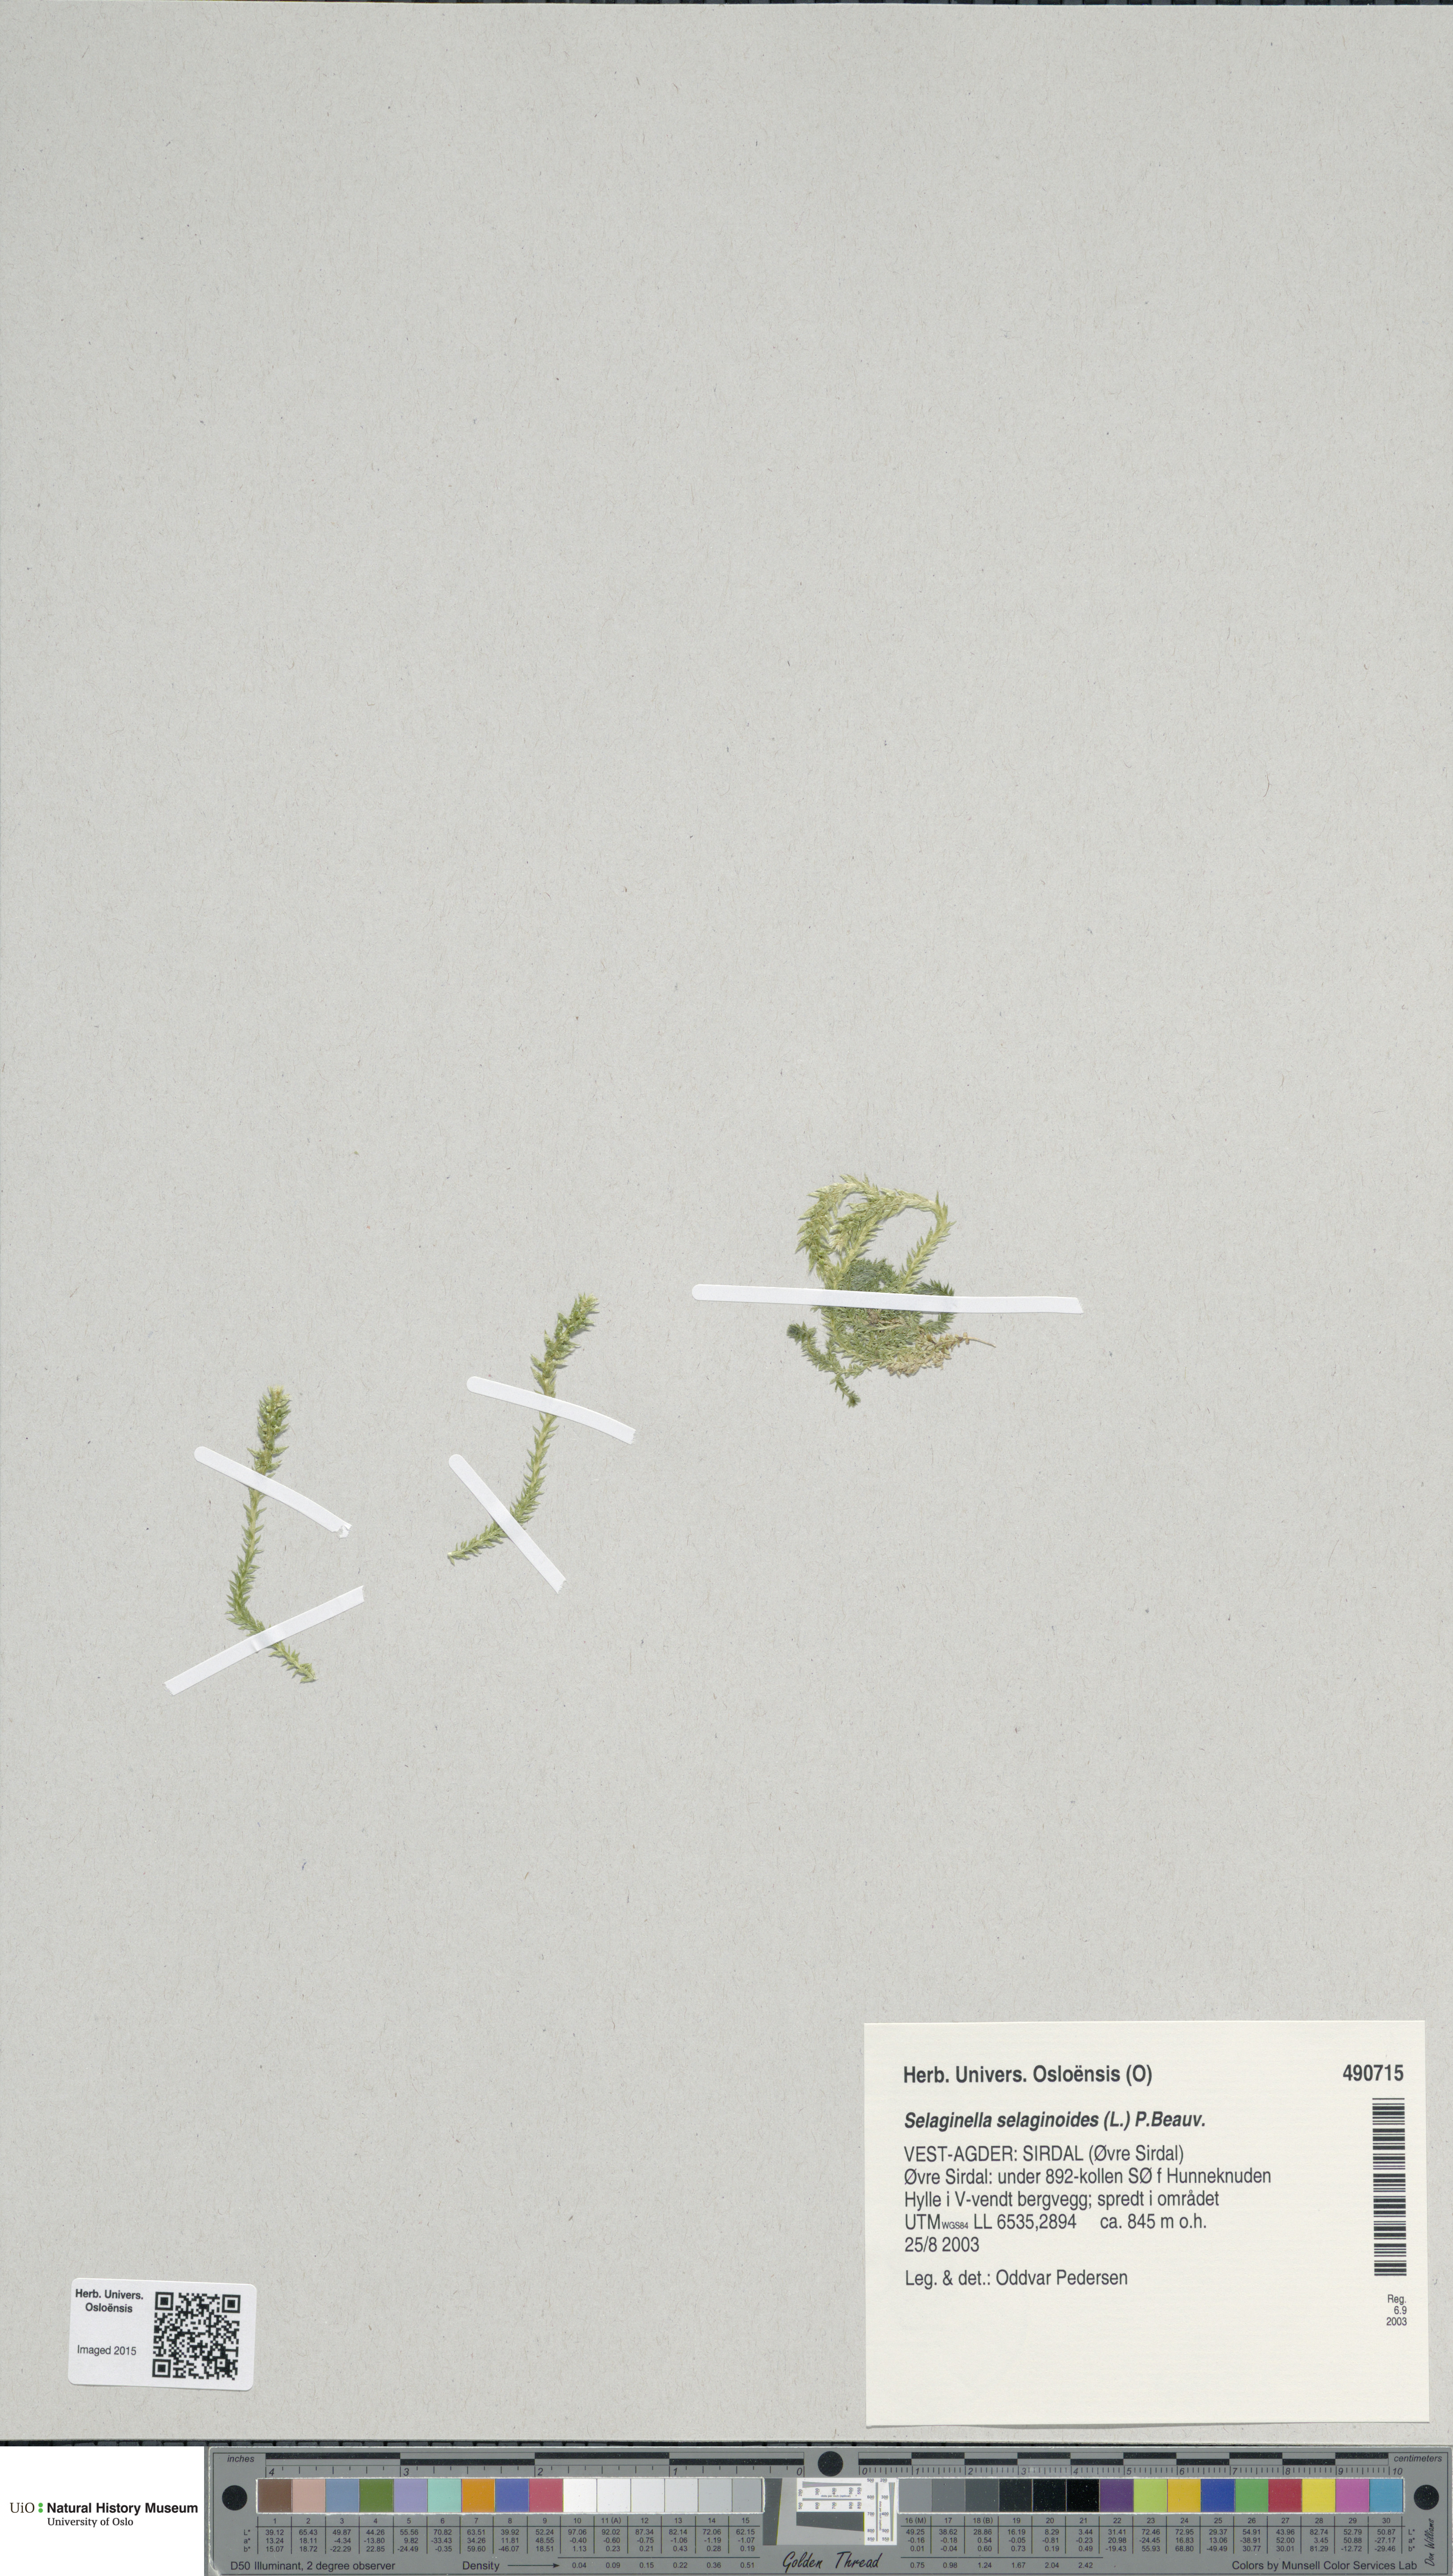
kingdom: Plantae
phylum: Tracheophyta
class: Lycopodiopsida
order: Selaginellales
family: Selaginellaceae
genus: Selaginella
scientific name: Selaginella selaginoides
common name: Prickly mountain-moss
